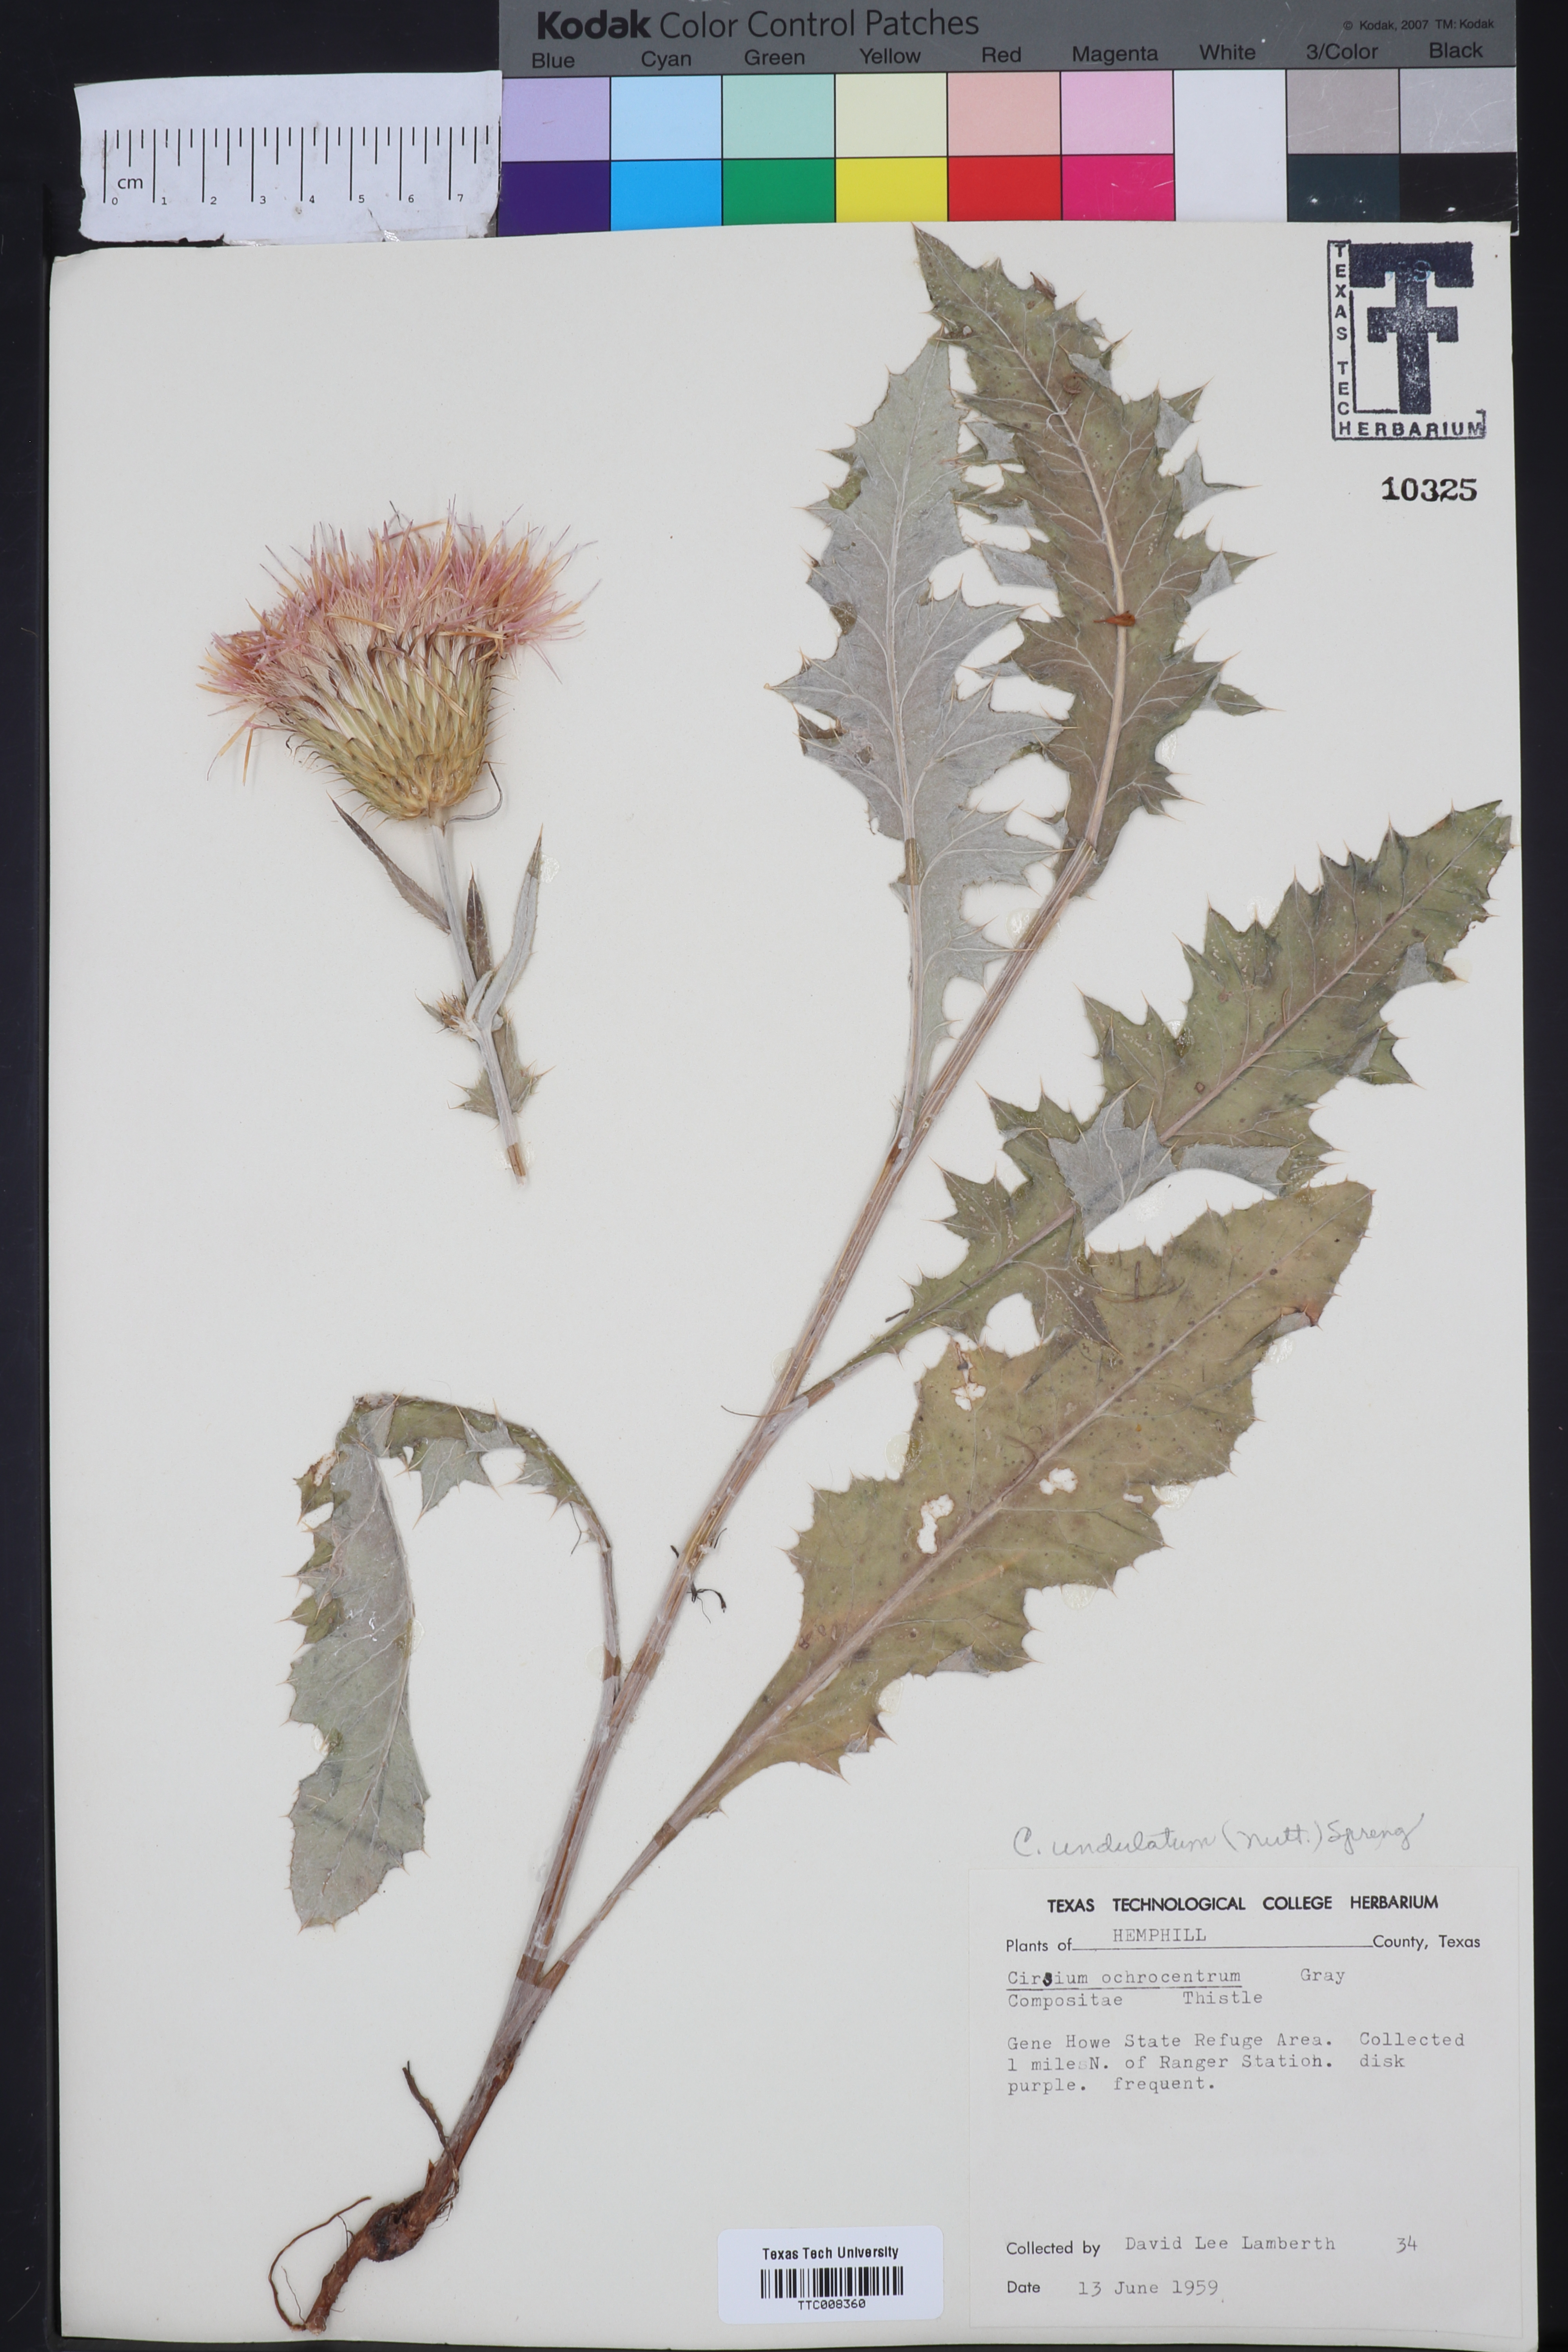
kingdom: Plantae
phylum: Tracheophyta
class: Magnoliopsida
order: Asterales
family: Asteraceae
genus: Cirsium
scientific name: Cirsium undulatum
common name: Pasture thistle
